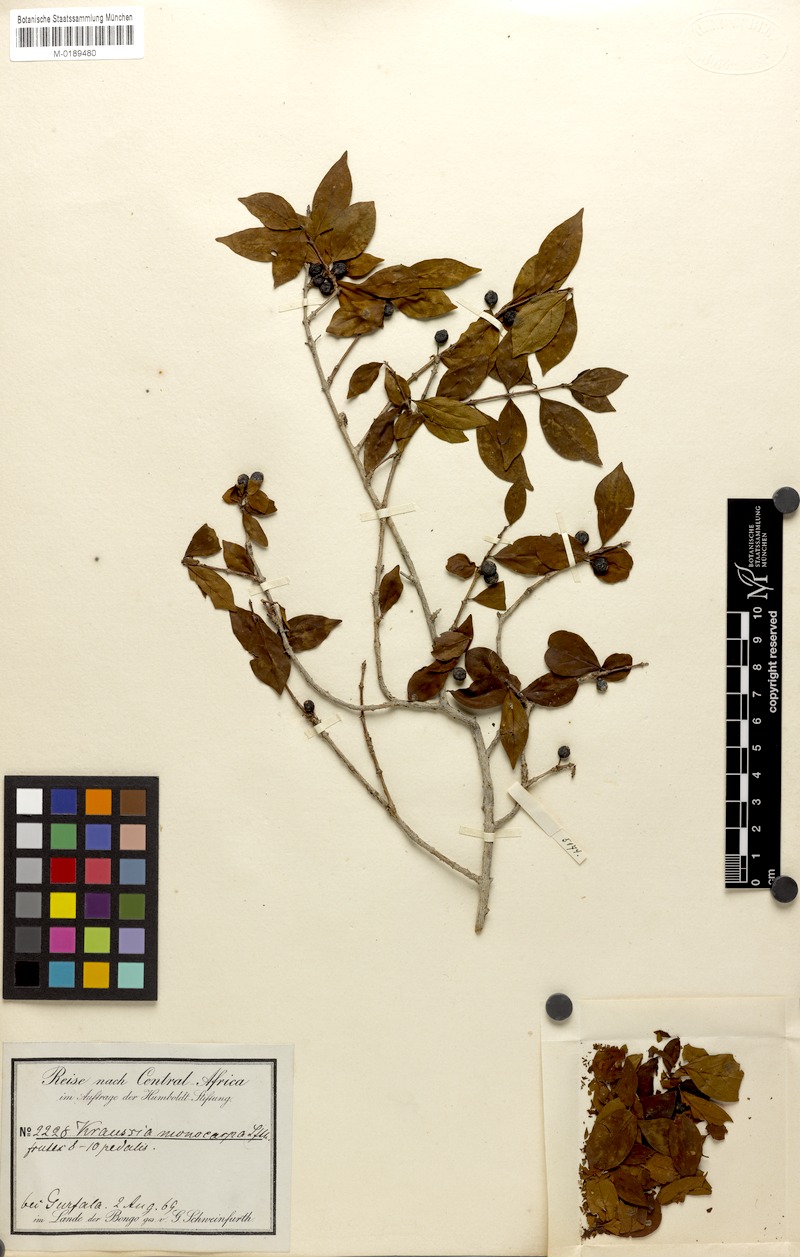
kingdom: Plantae
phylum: Tracheophyta
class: Magnoliopsida
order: Gentianales
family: Rubiaceae
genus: Kraussia
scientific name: Kraussia
